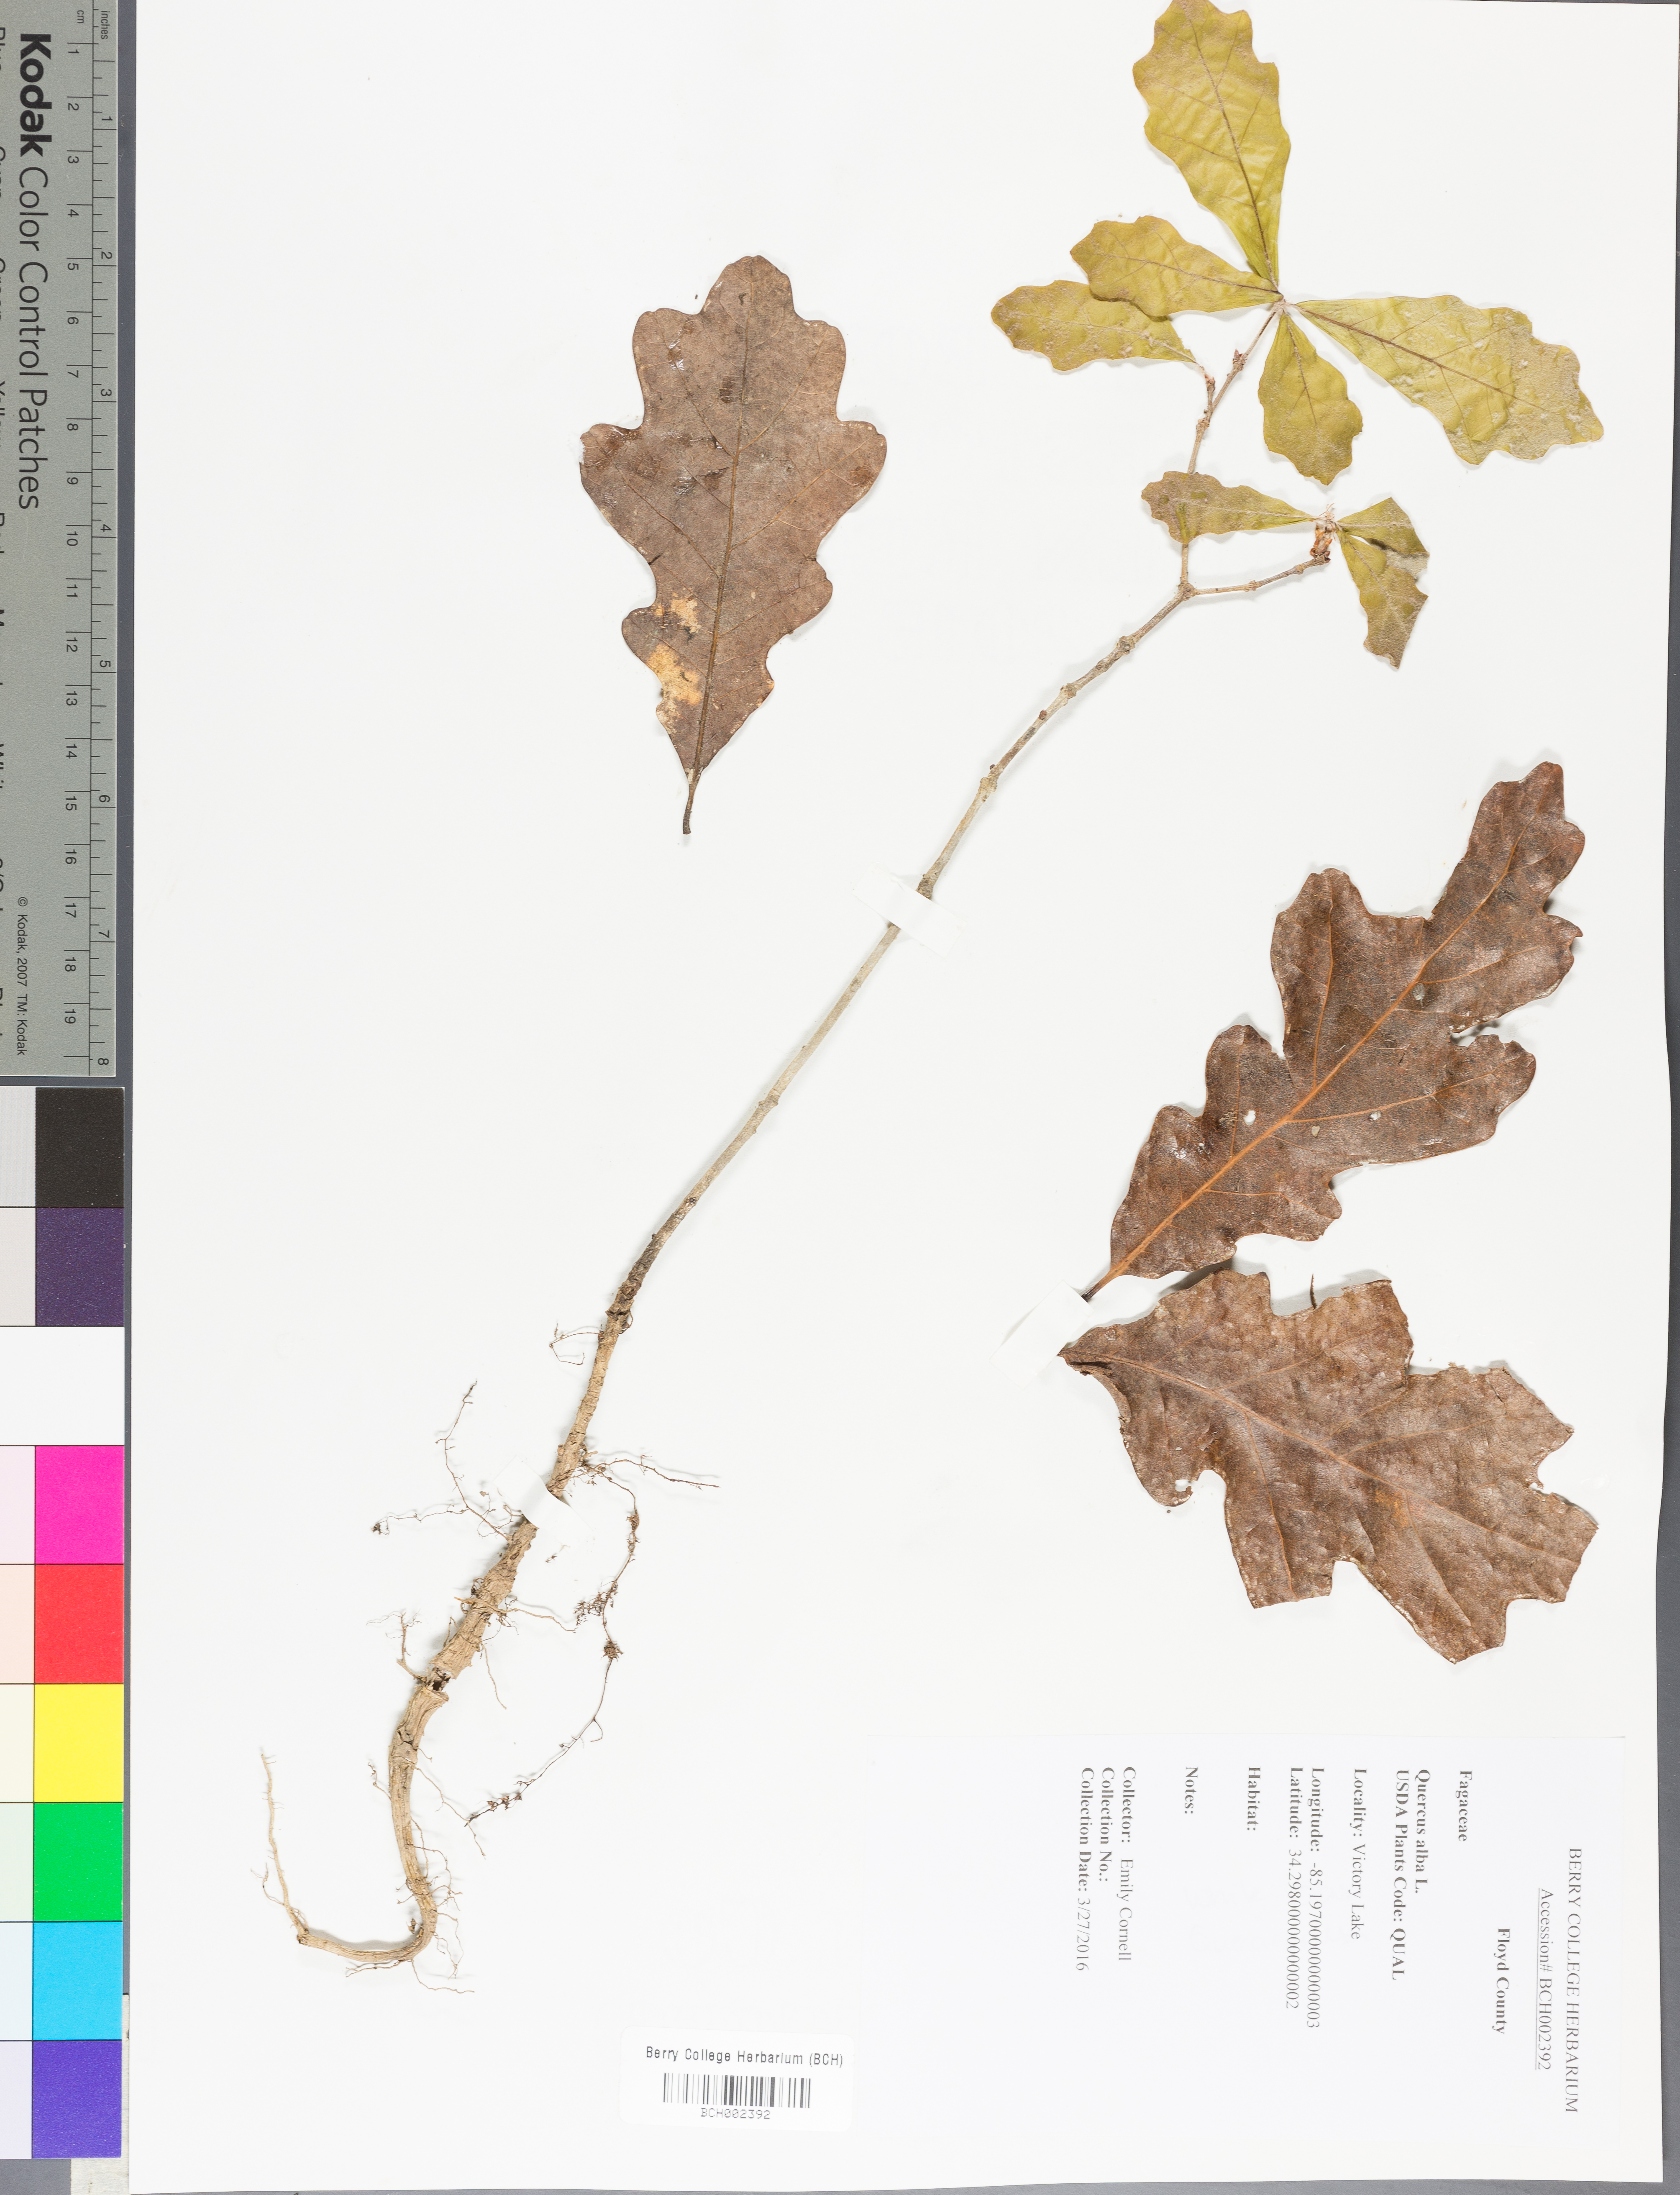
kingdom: Plantae
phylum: Tracheophyta
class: Magnoliopsida
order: Fagales
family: Fagaceae
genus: Quercus
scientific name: Quercus alba
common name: White oak
